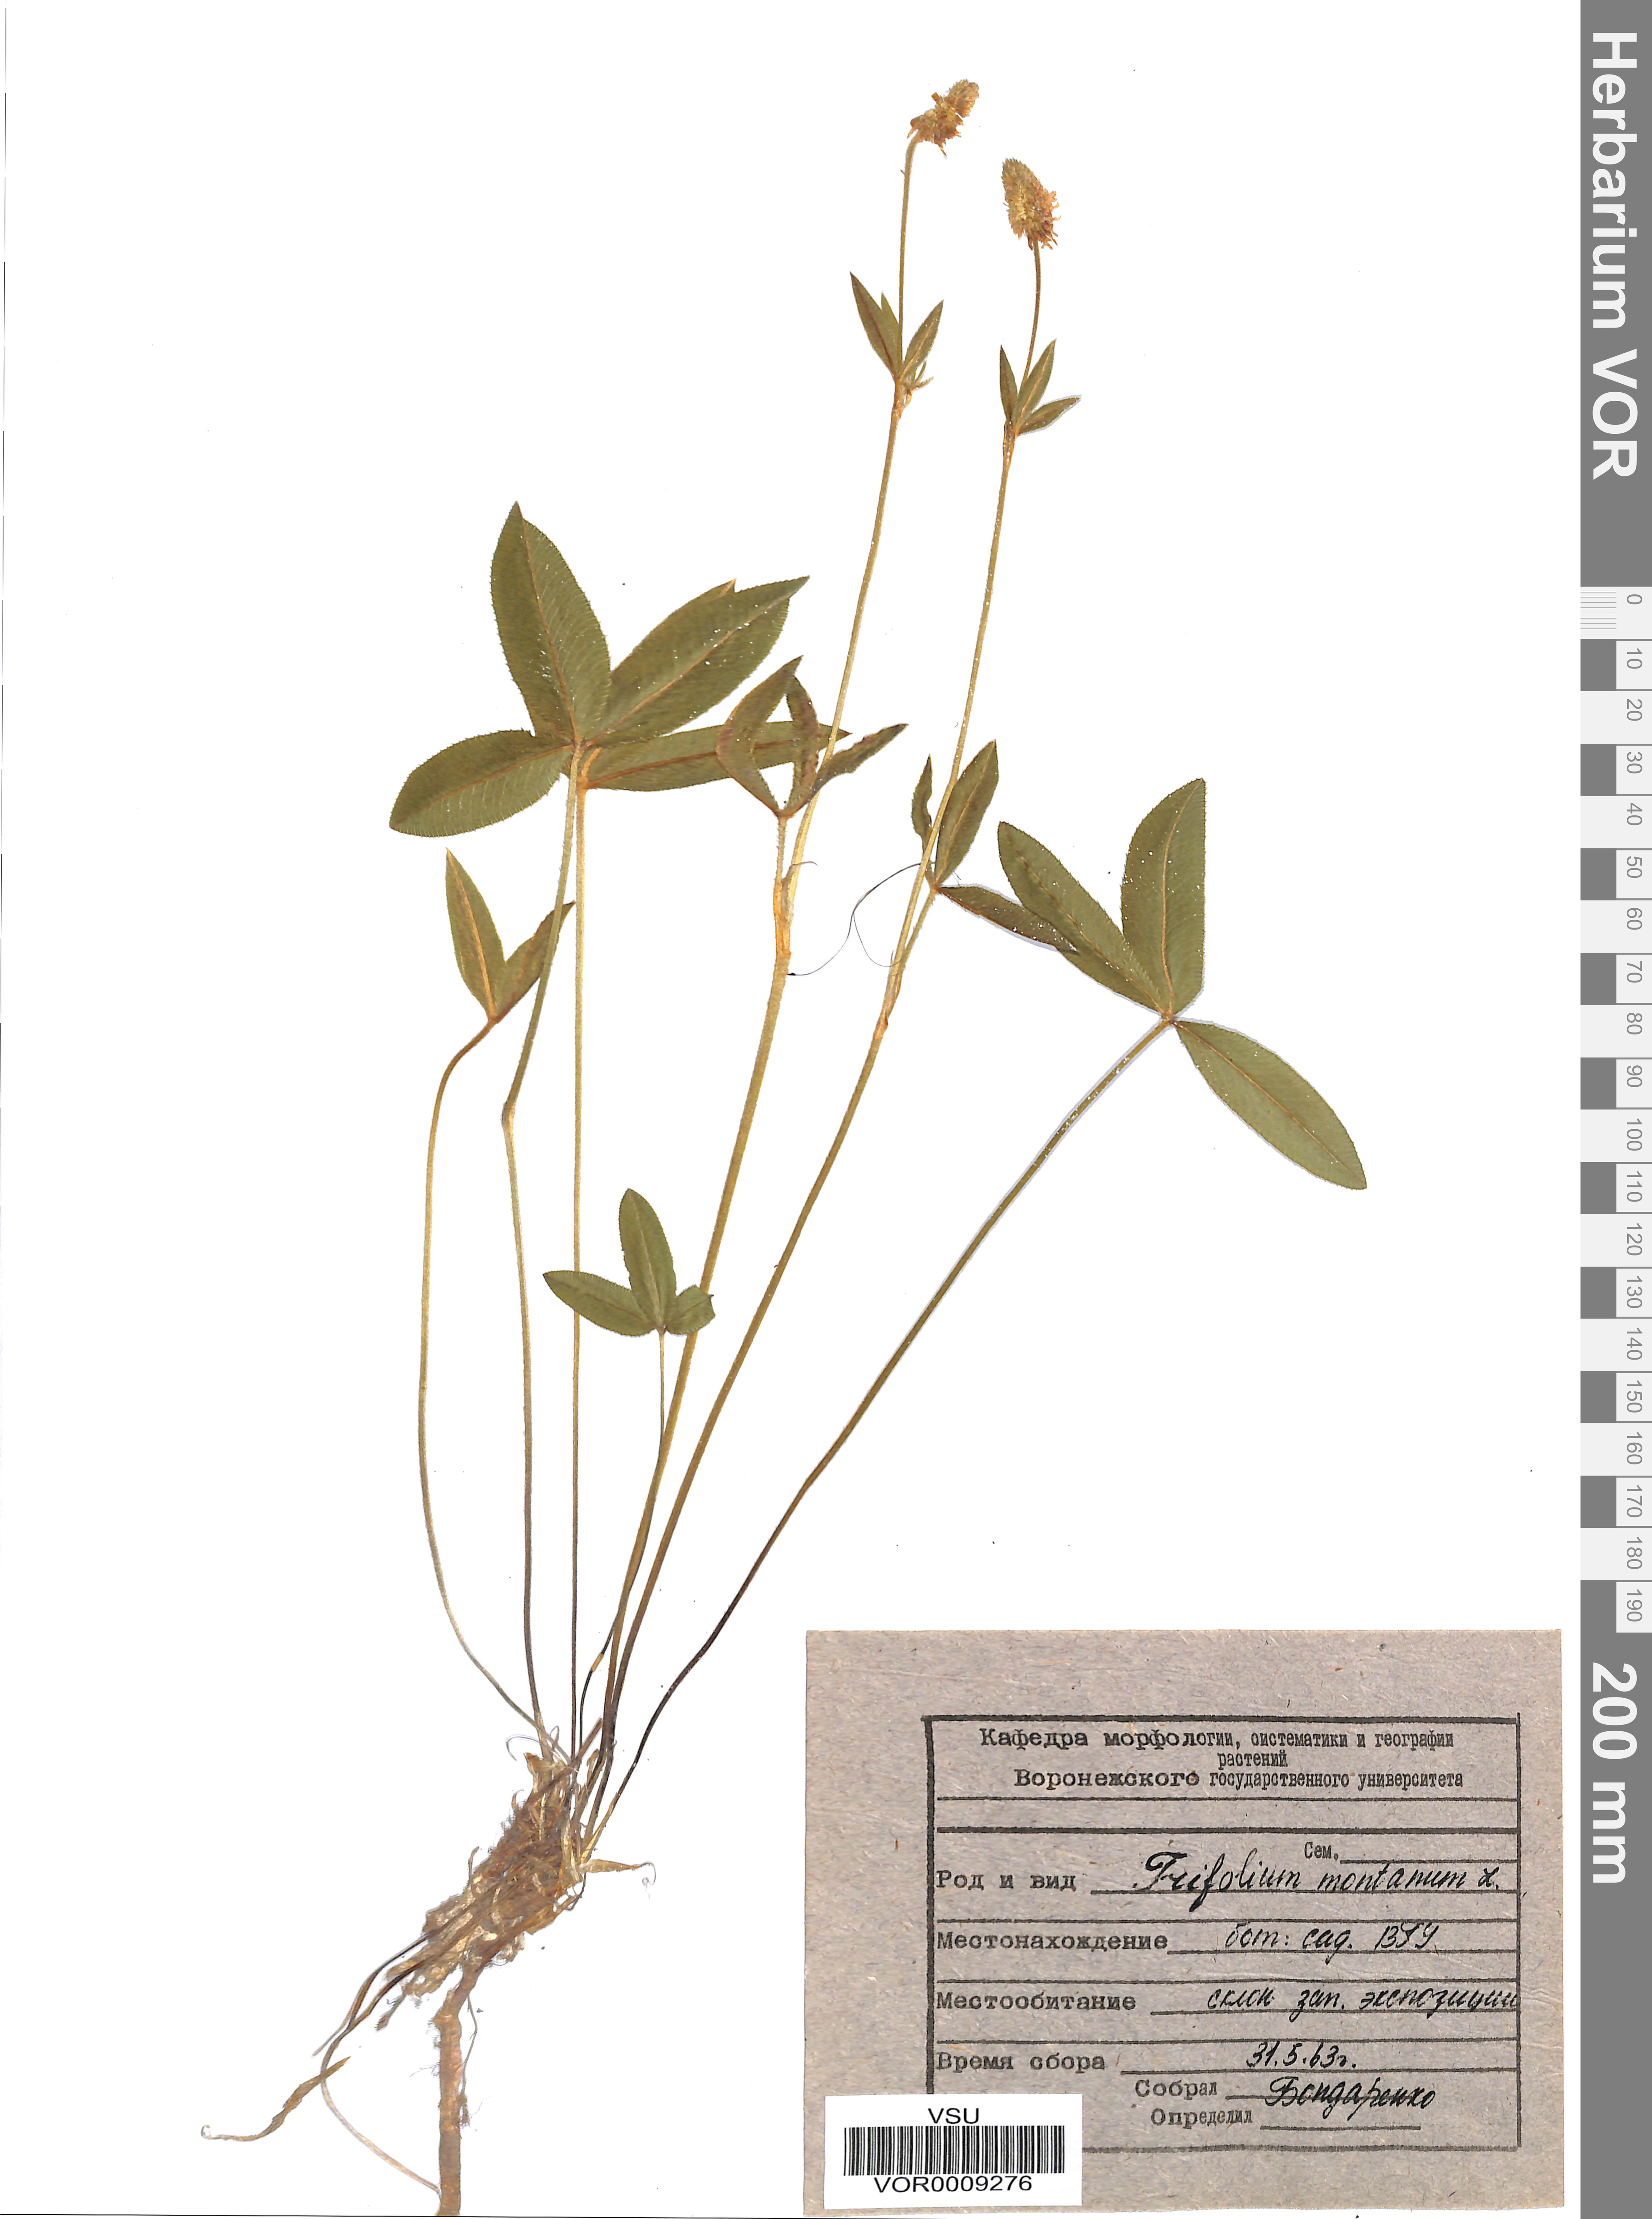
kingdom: Plantae
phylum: Tracheophyta
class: Magnoliopsida
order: Fabales
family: Fabaceae
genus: Trifolium
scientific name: Trifolium montanum
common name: Mountain clover
